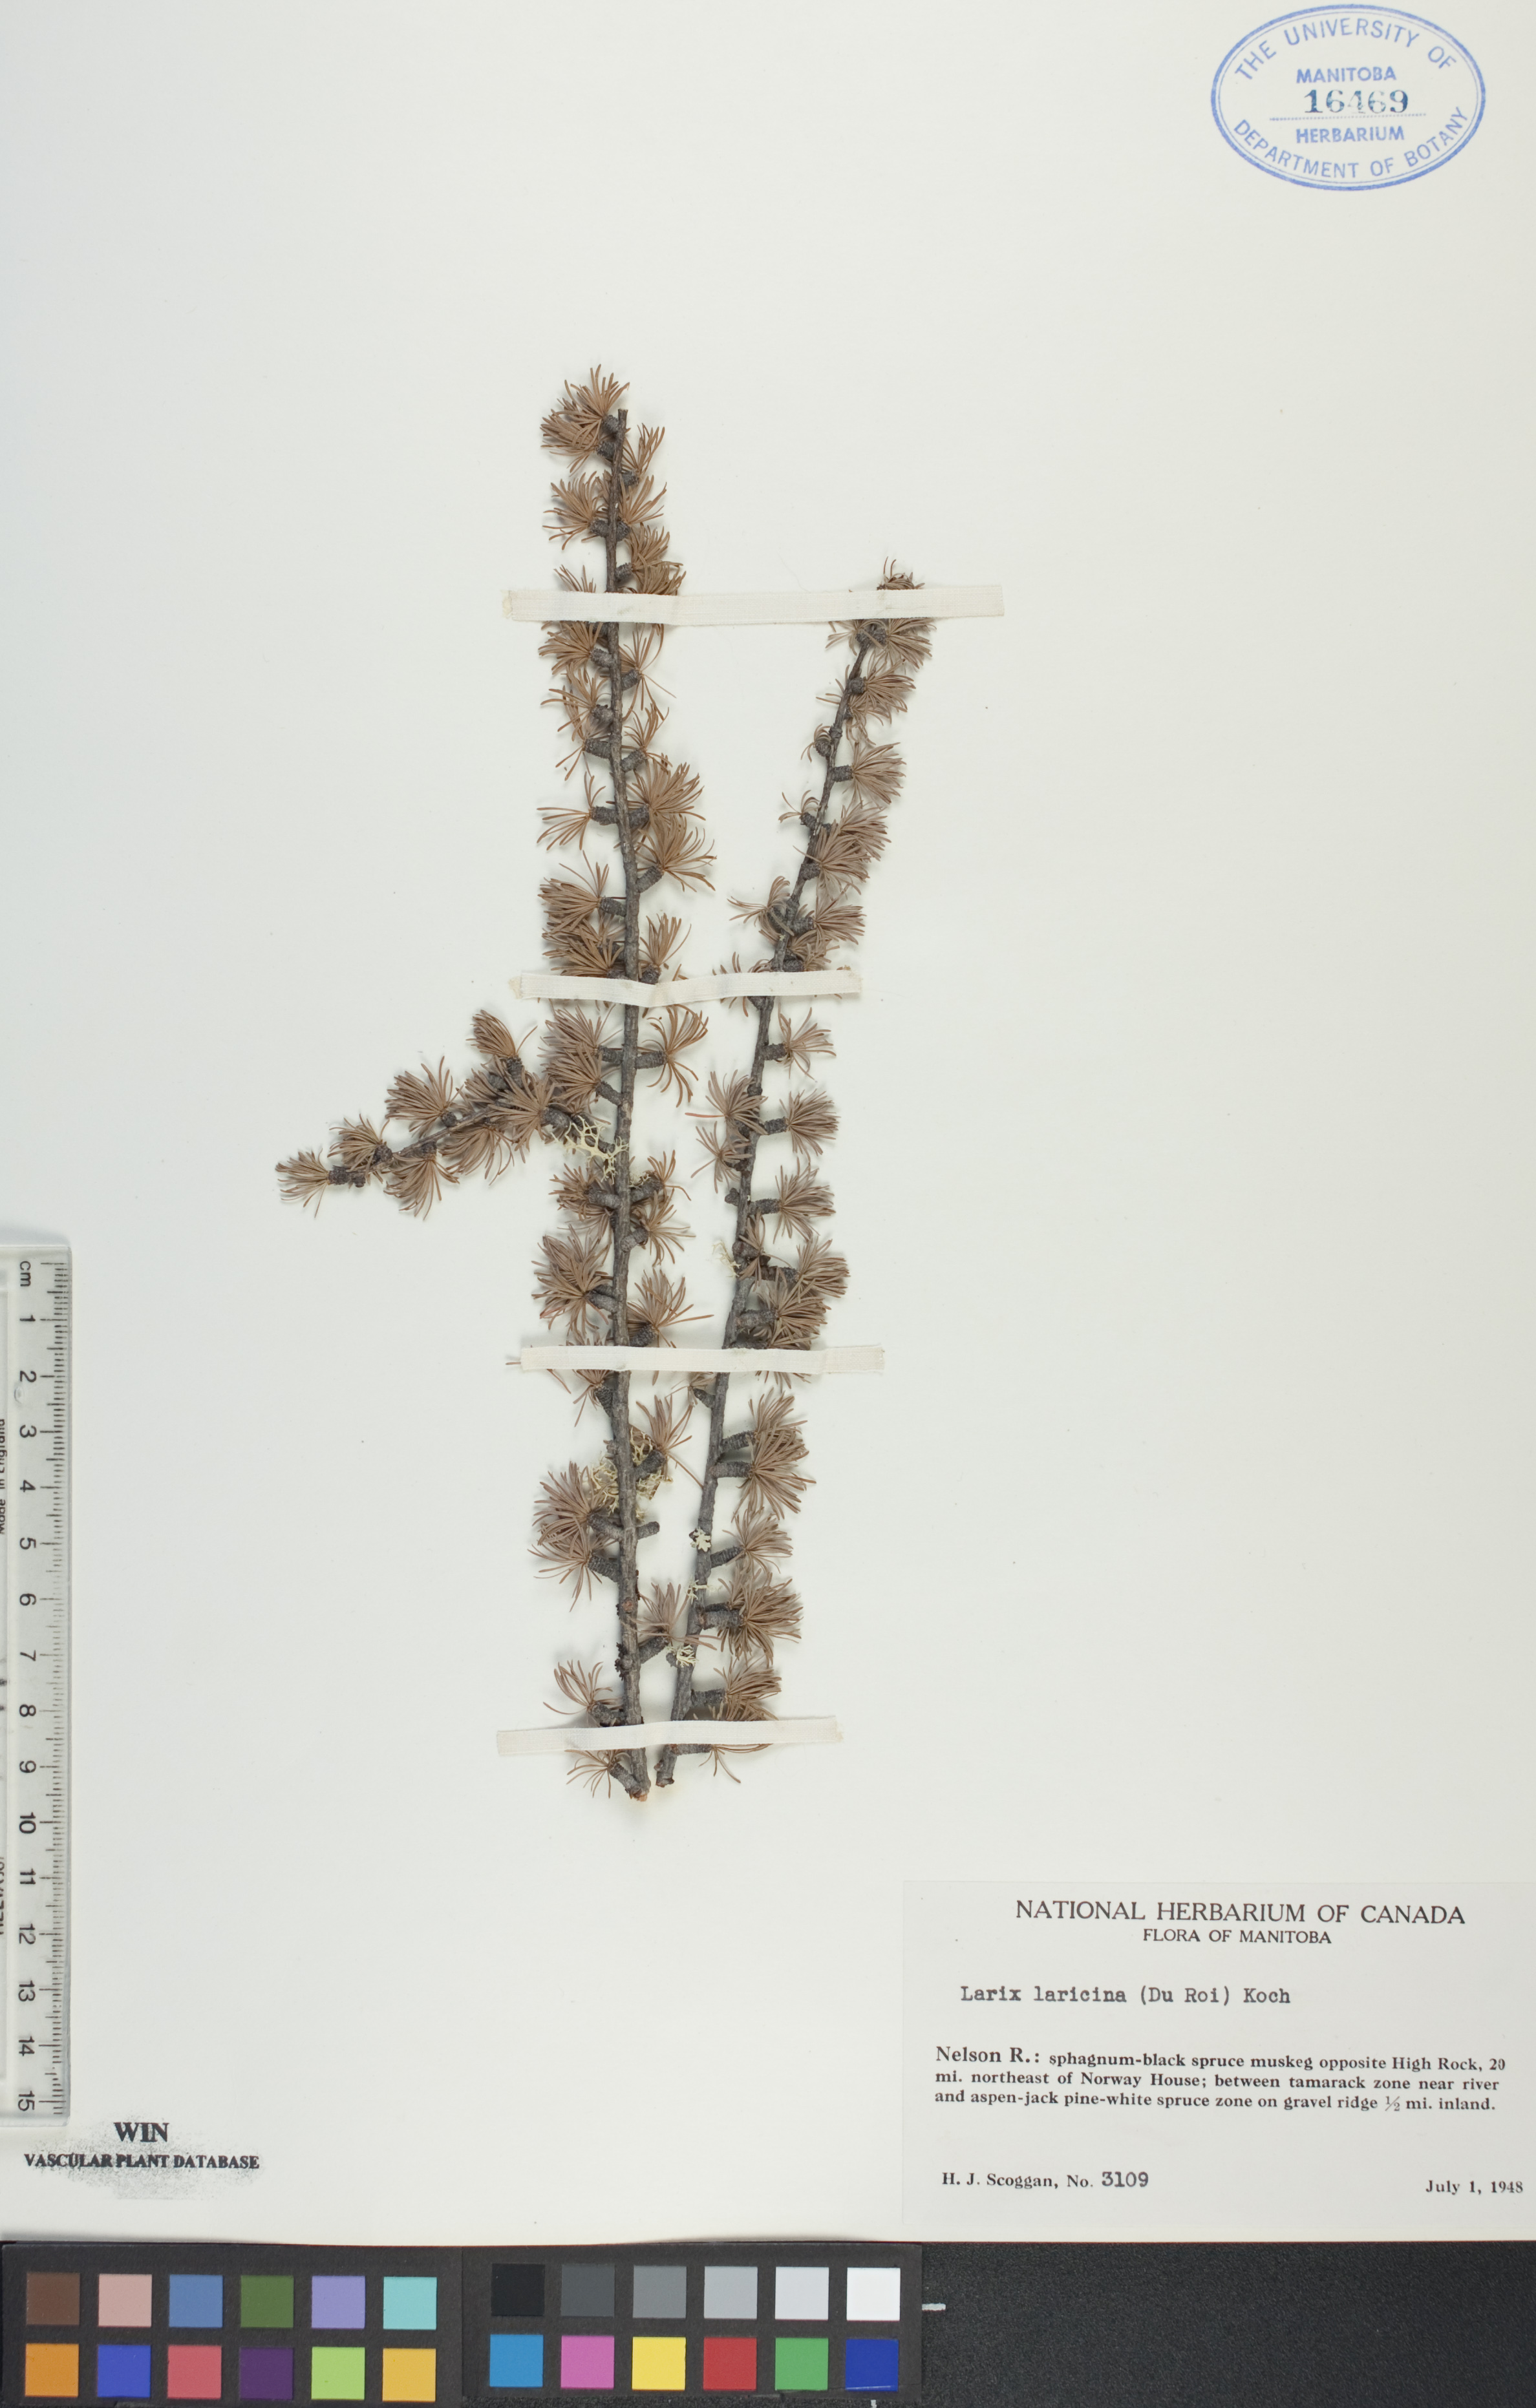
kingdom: Plantae
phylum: Tracheophyta
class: Pinopsida
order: Pinales
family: Pinaceae
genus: Larix
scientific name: Larix laricina
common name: American larch
